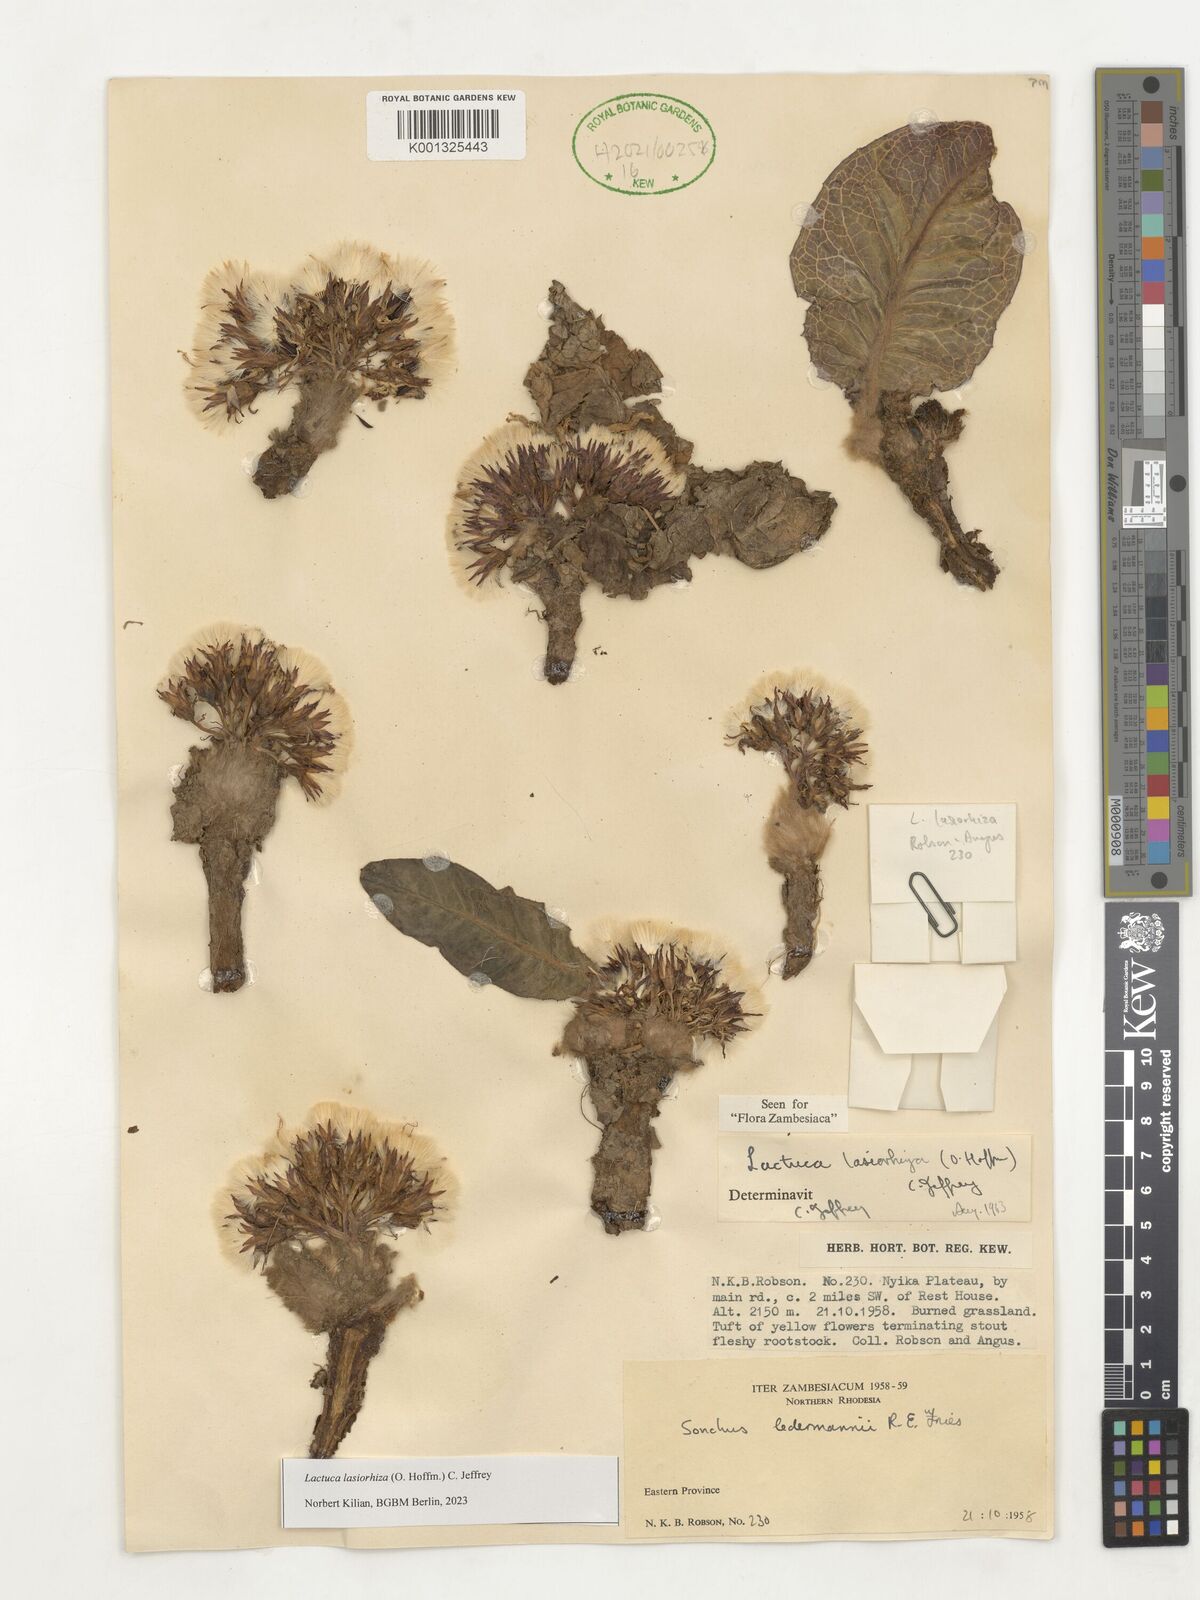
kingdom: Plantae
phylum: Tracheophyta
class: Magnoliopsida
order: Asterales
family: Asteraceae
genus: Lactuca
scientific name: Lactuca lasiorhiza
